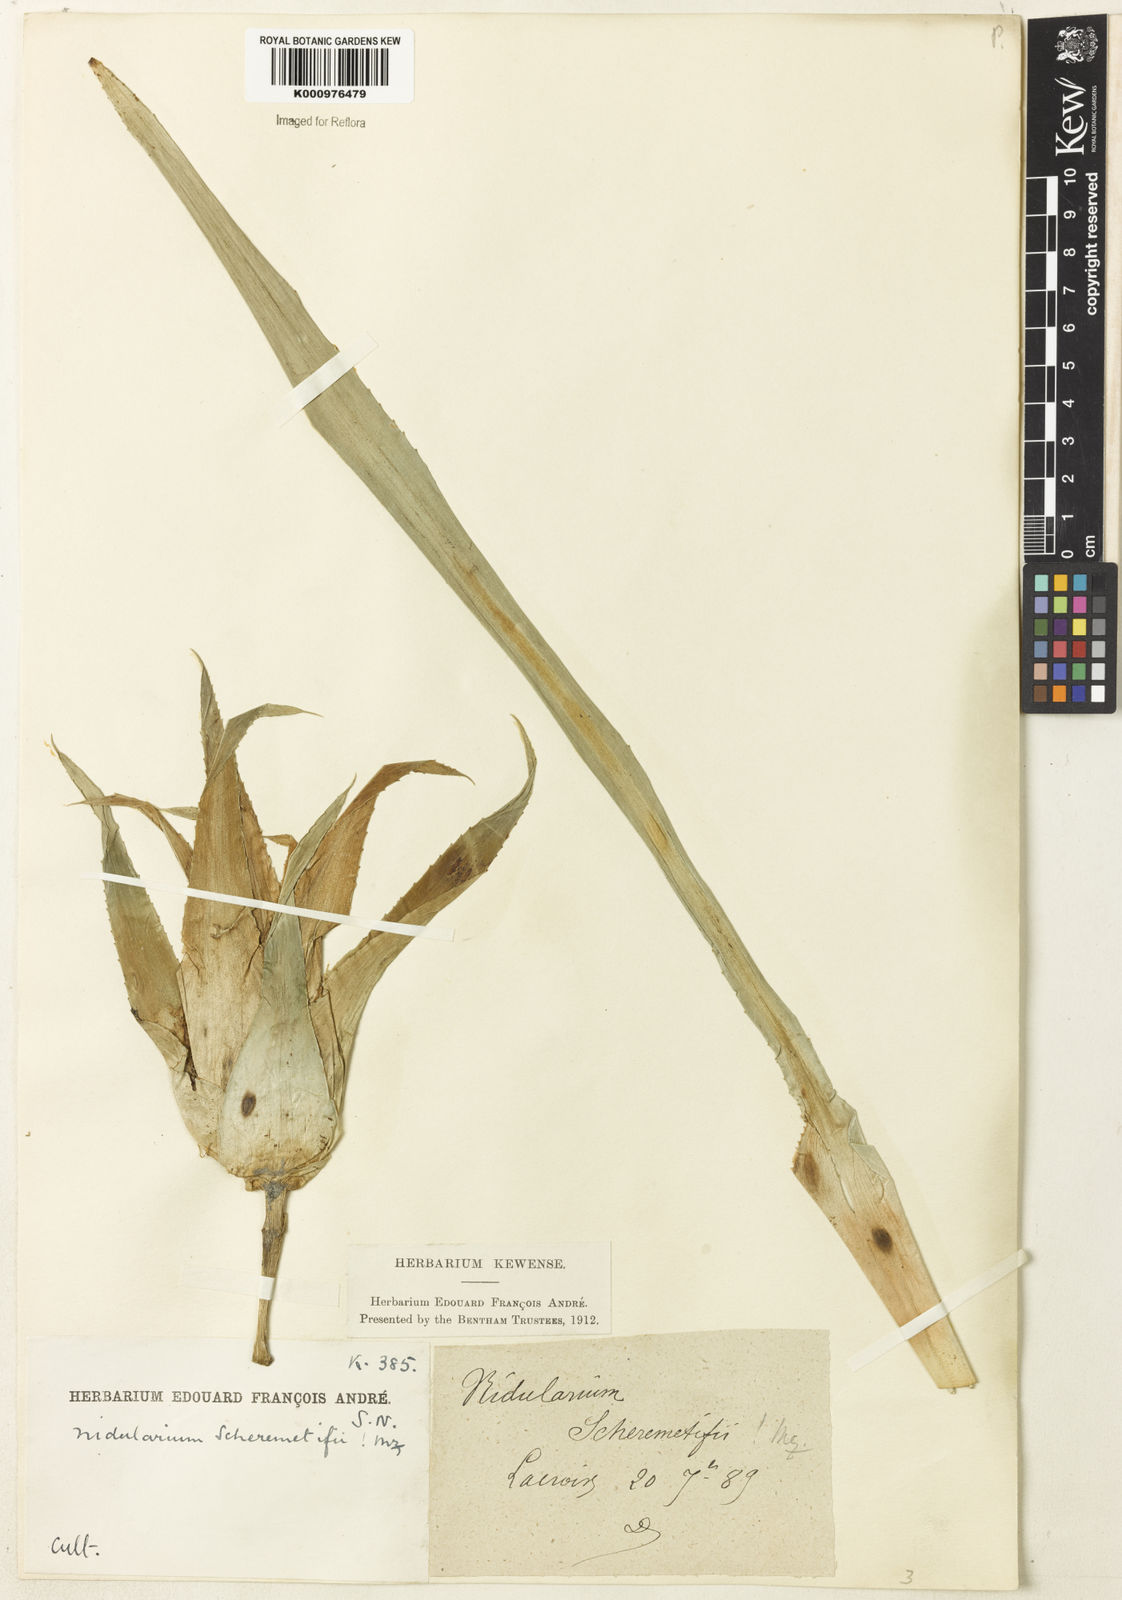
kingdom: Plantae
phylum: Tracheophyta
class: Liliopsida
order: Poales
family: Bromeliaceae
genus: Nidularium
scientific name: Nidularium scheremetiewii
